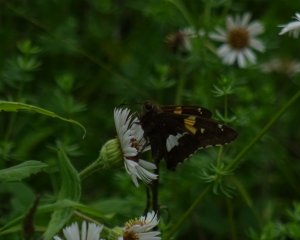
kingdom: Animalia
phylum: Arthropoda
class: Insecta
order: Lepidoptera
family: Hesperiidae
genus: Epargyreus
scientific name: Epargyreus clarus
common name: Silver-spotted Skipper
